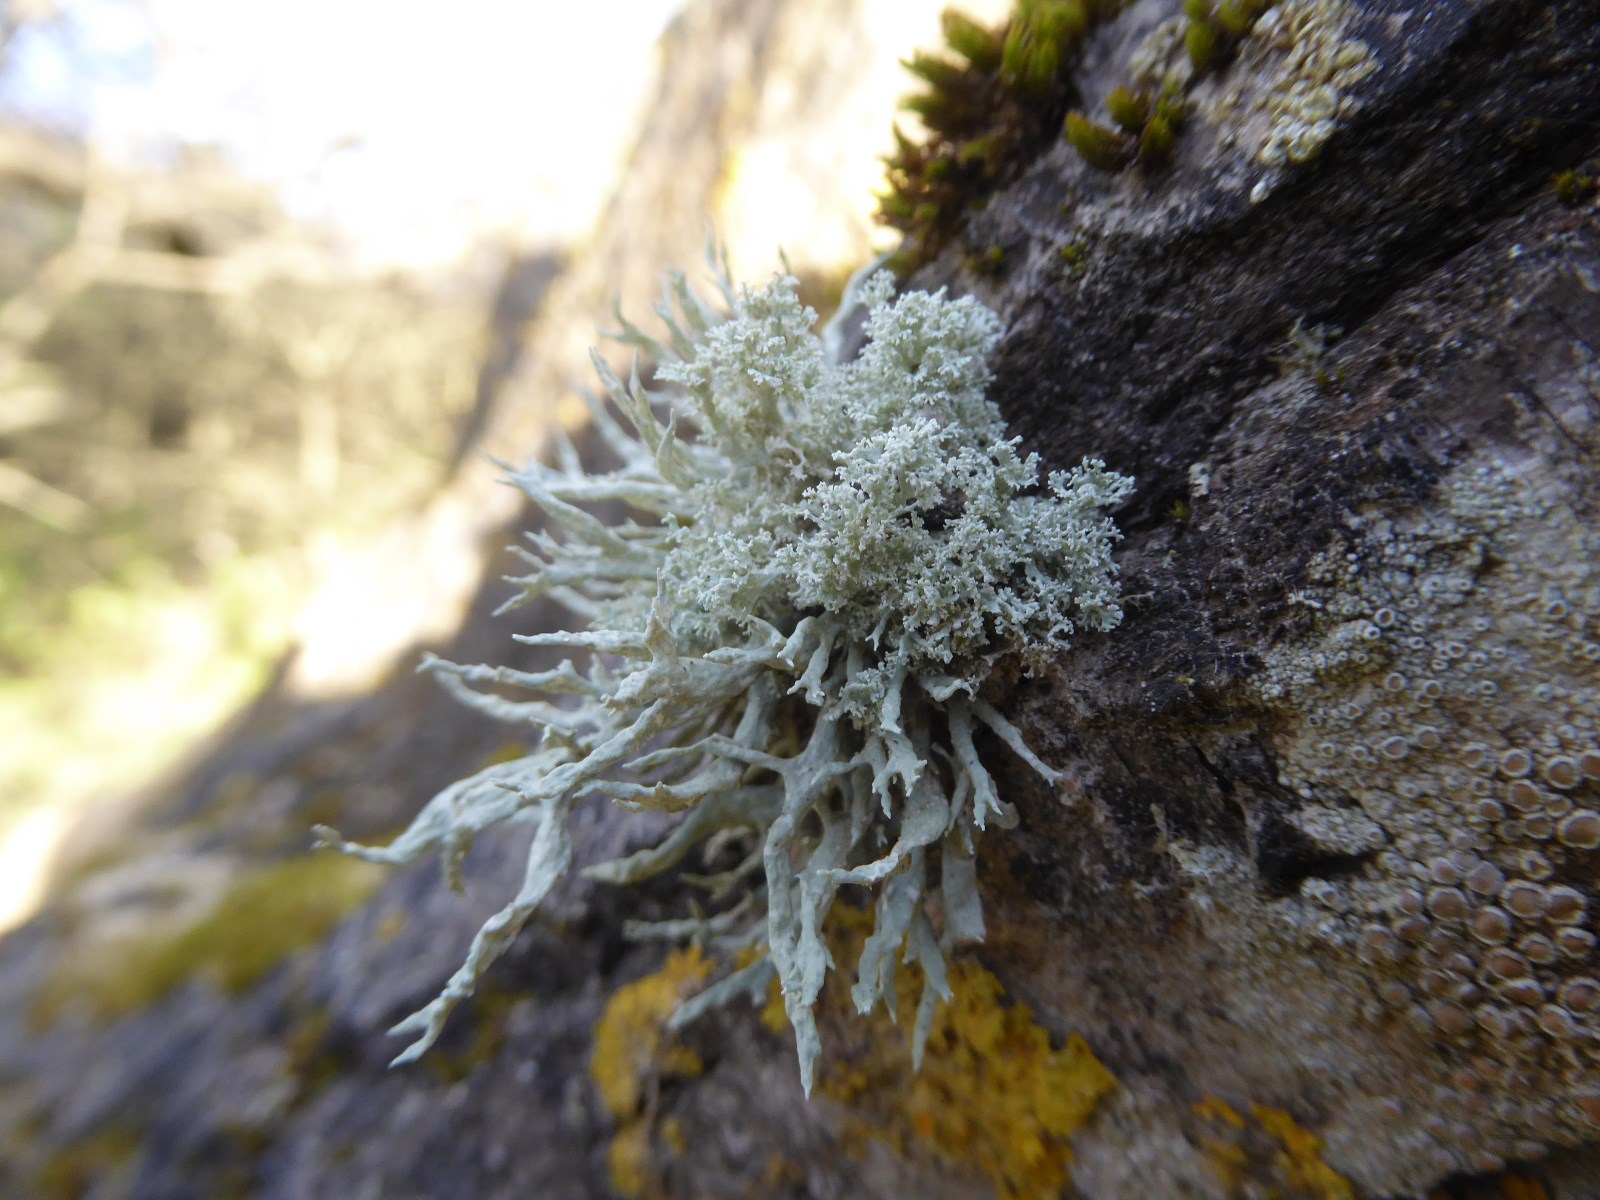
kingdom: Fungi
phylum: Ascomycota
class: Lecanoromycetes
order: Lecanorales
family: Ramalinaceae
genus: Ramalina
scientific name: Ramalina farinacea
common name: melet grenlav
